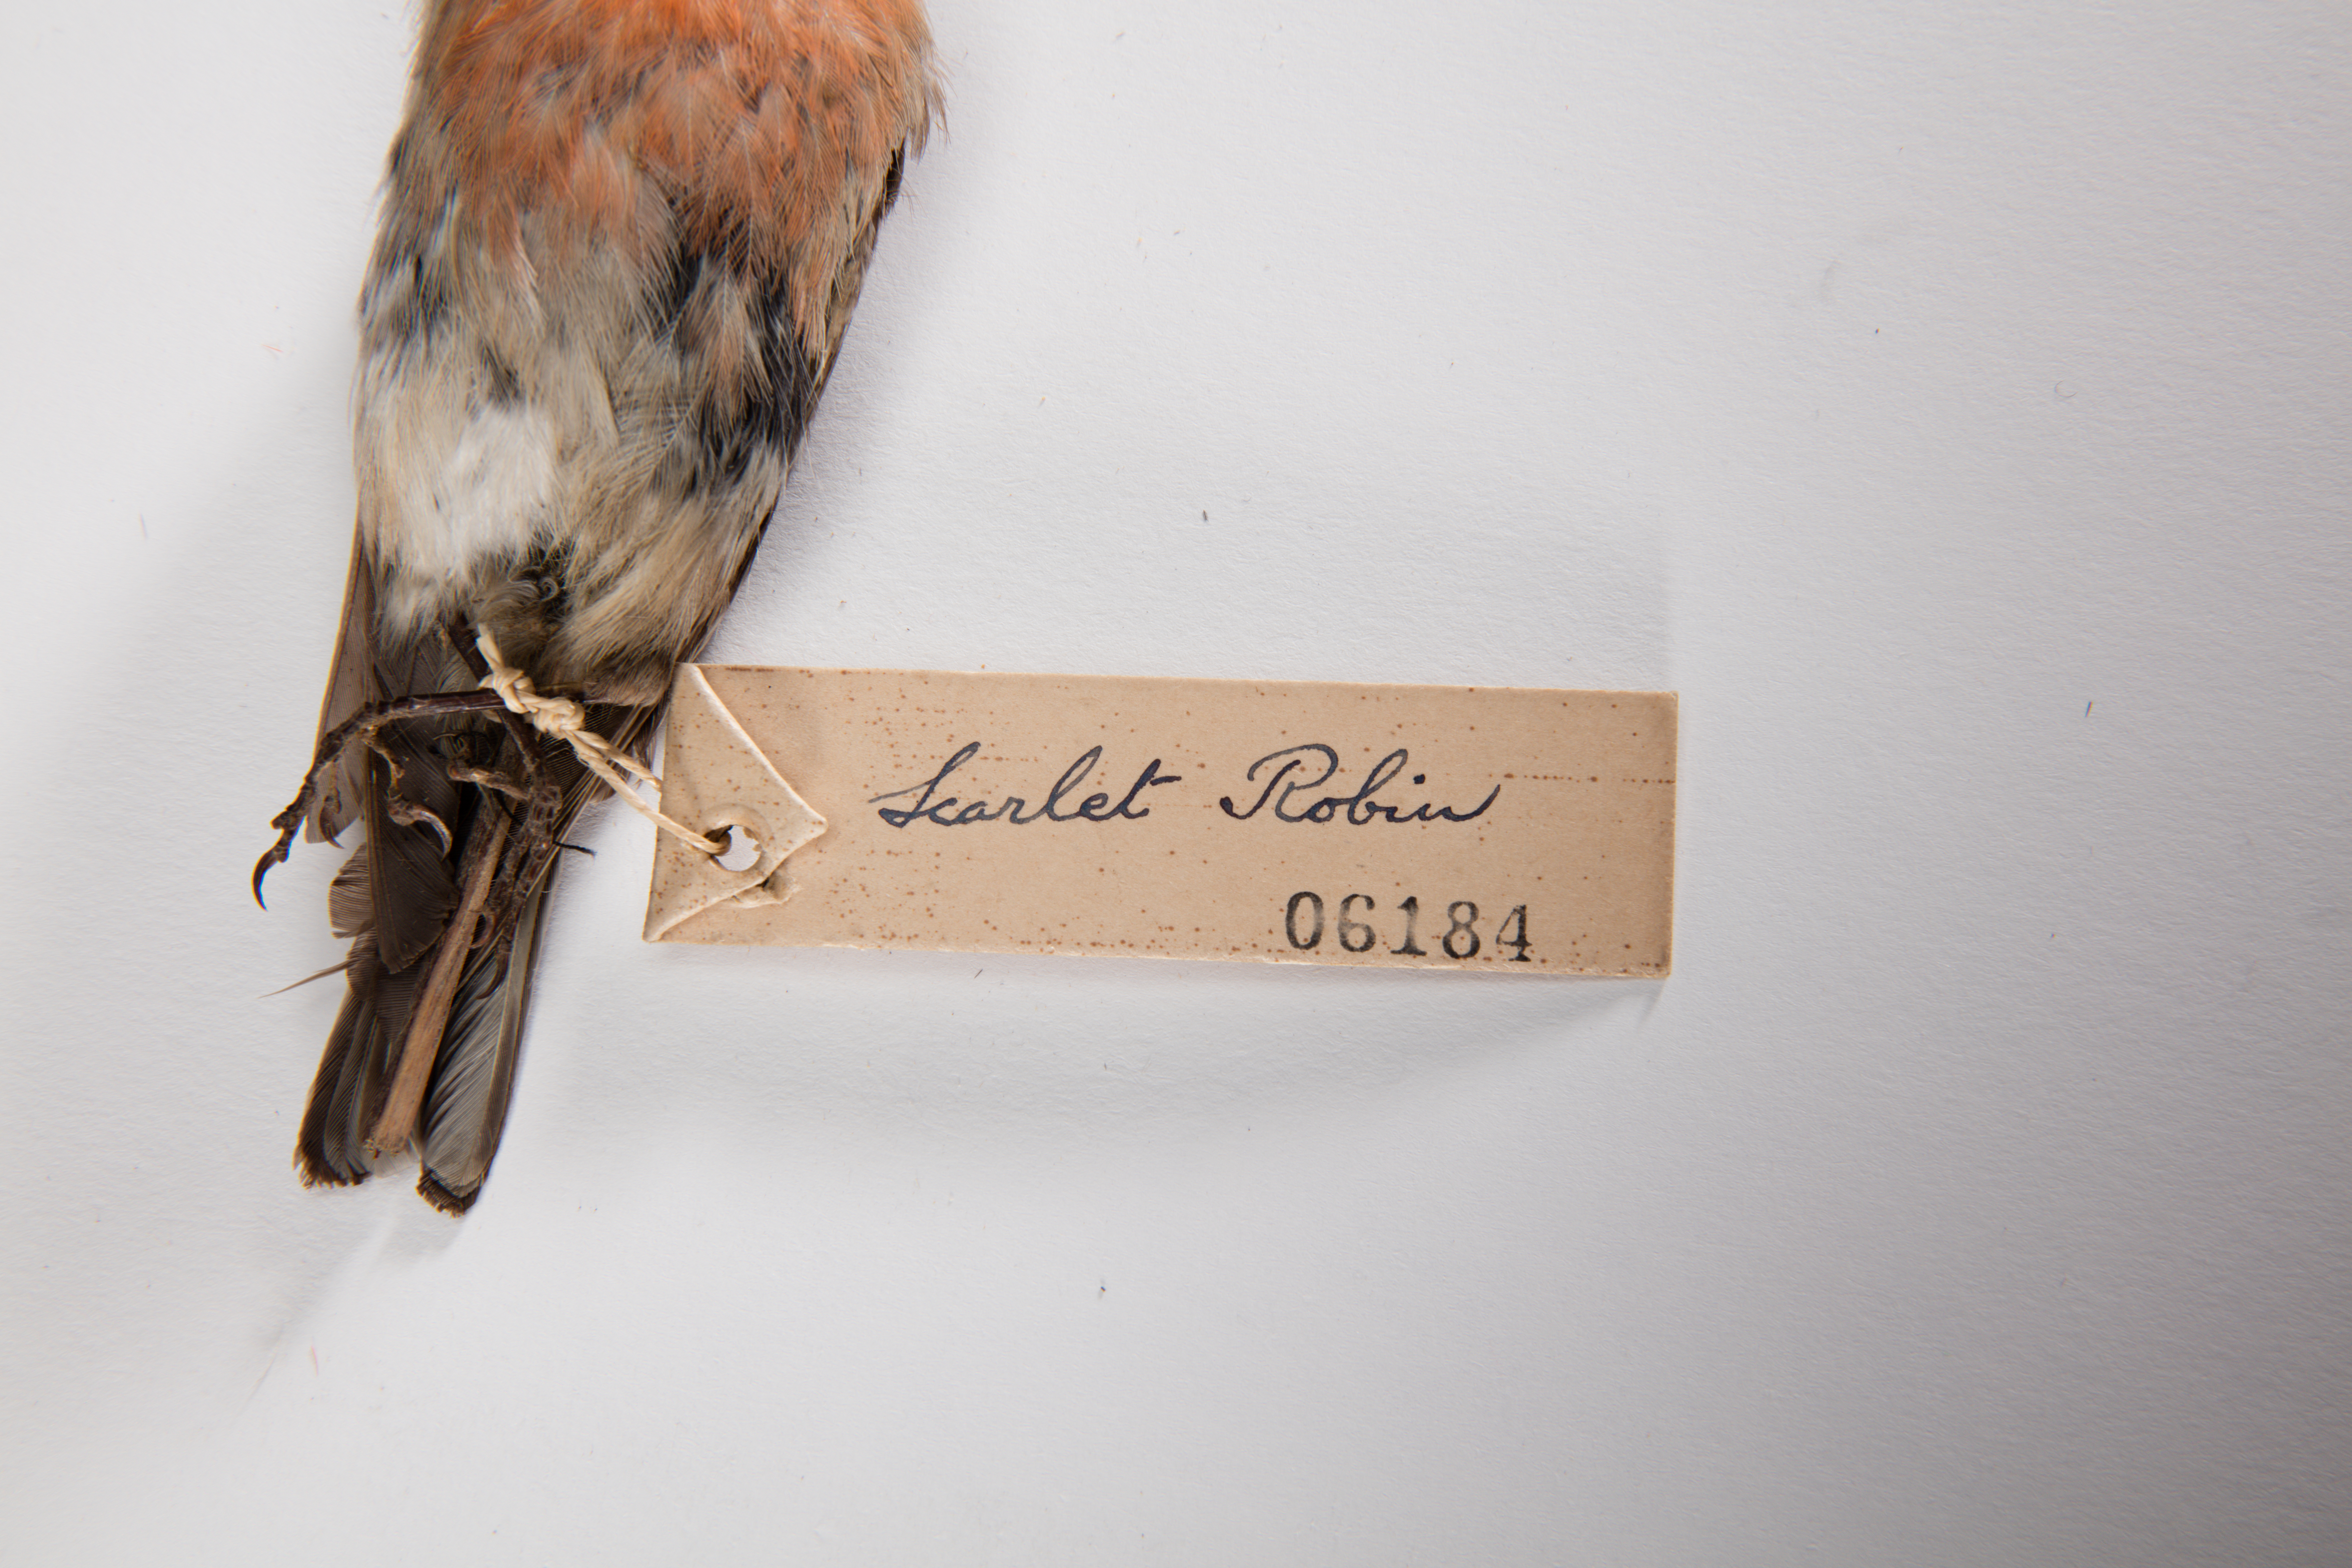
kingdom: Animalia
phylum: Chordata
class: Aves
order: Passeriformes
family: Petroicidae
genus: Petroica
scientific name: Petroica multicolor
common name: Pacific robin
